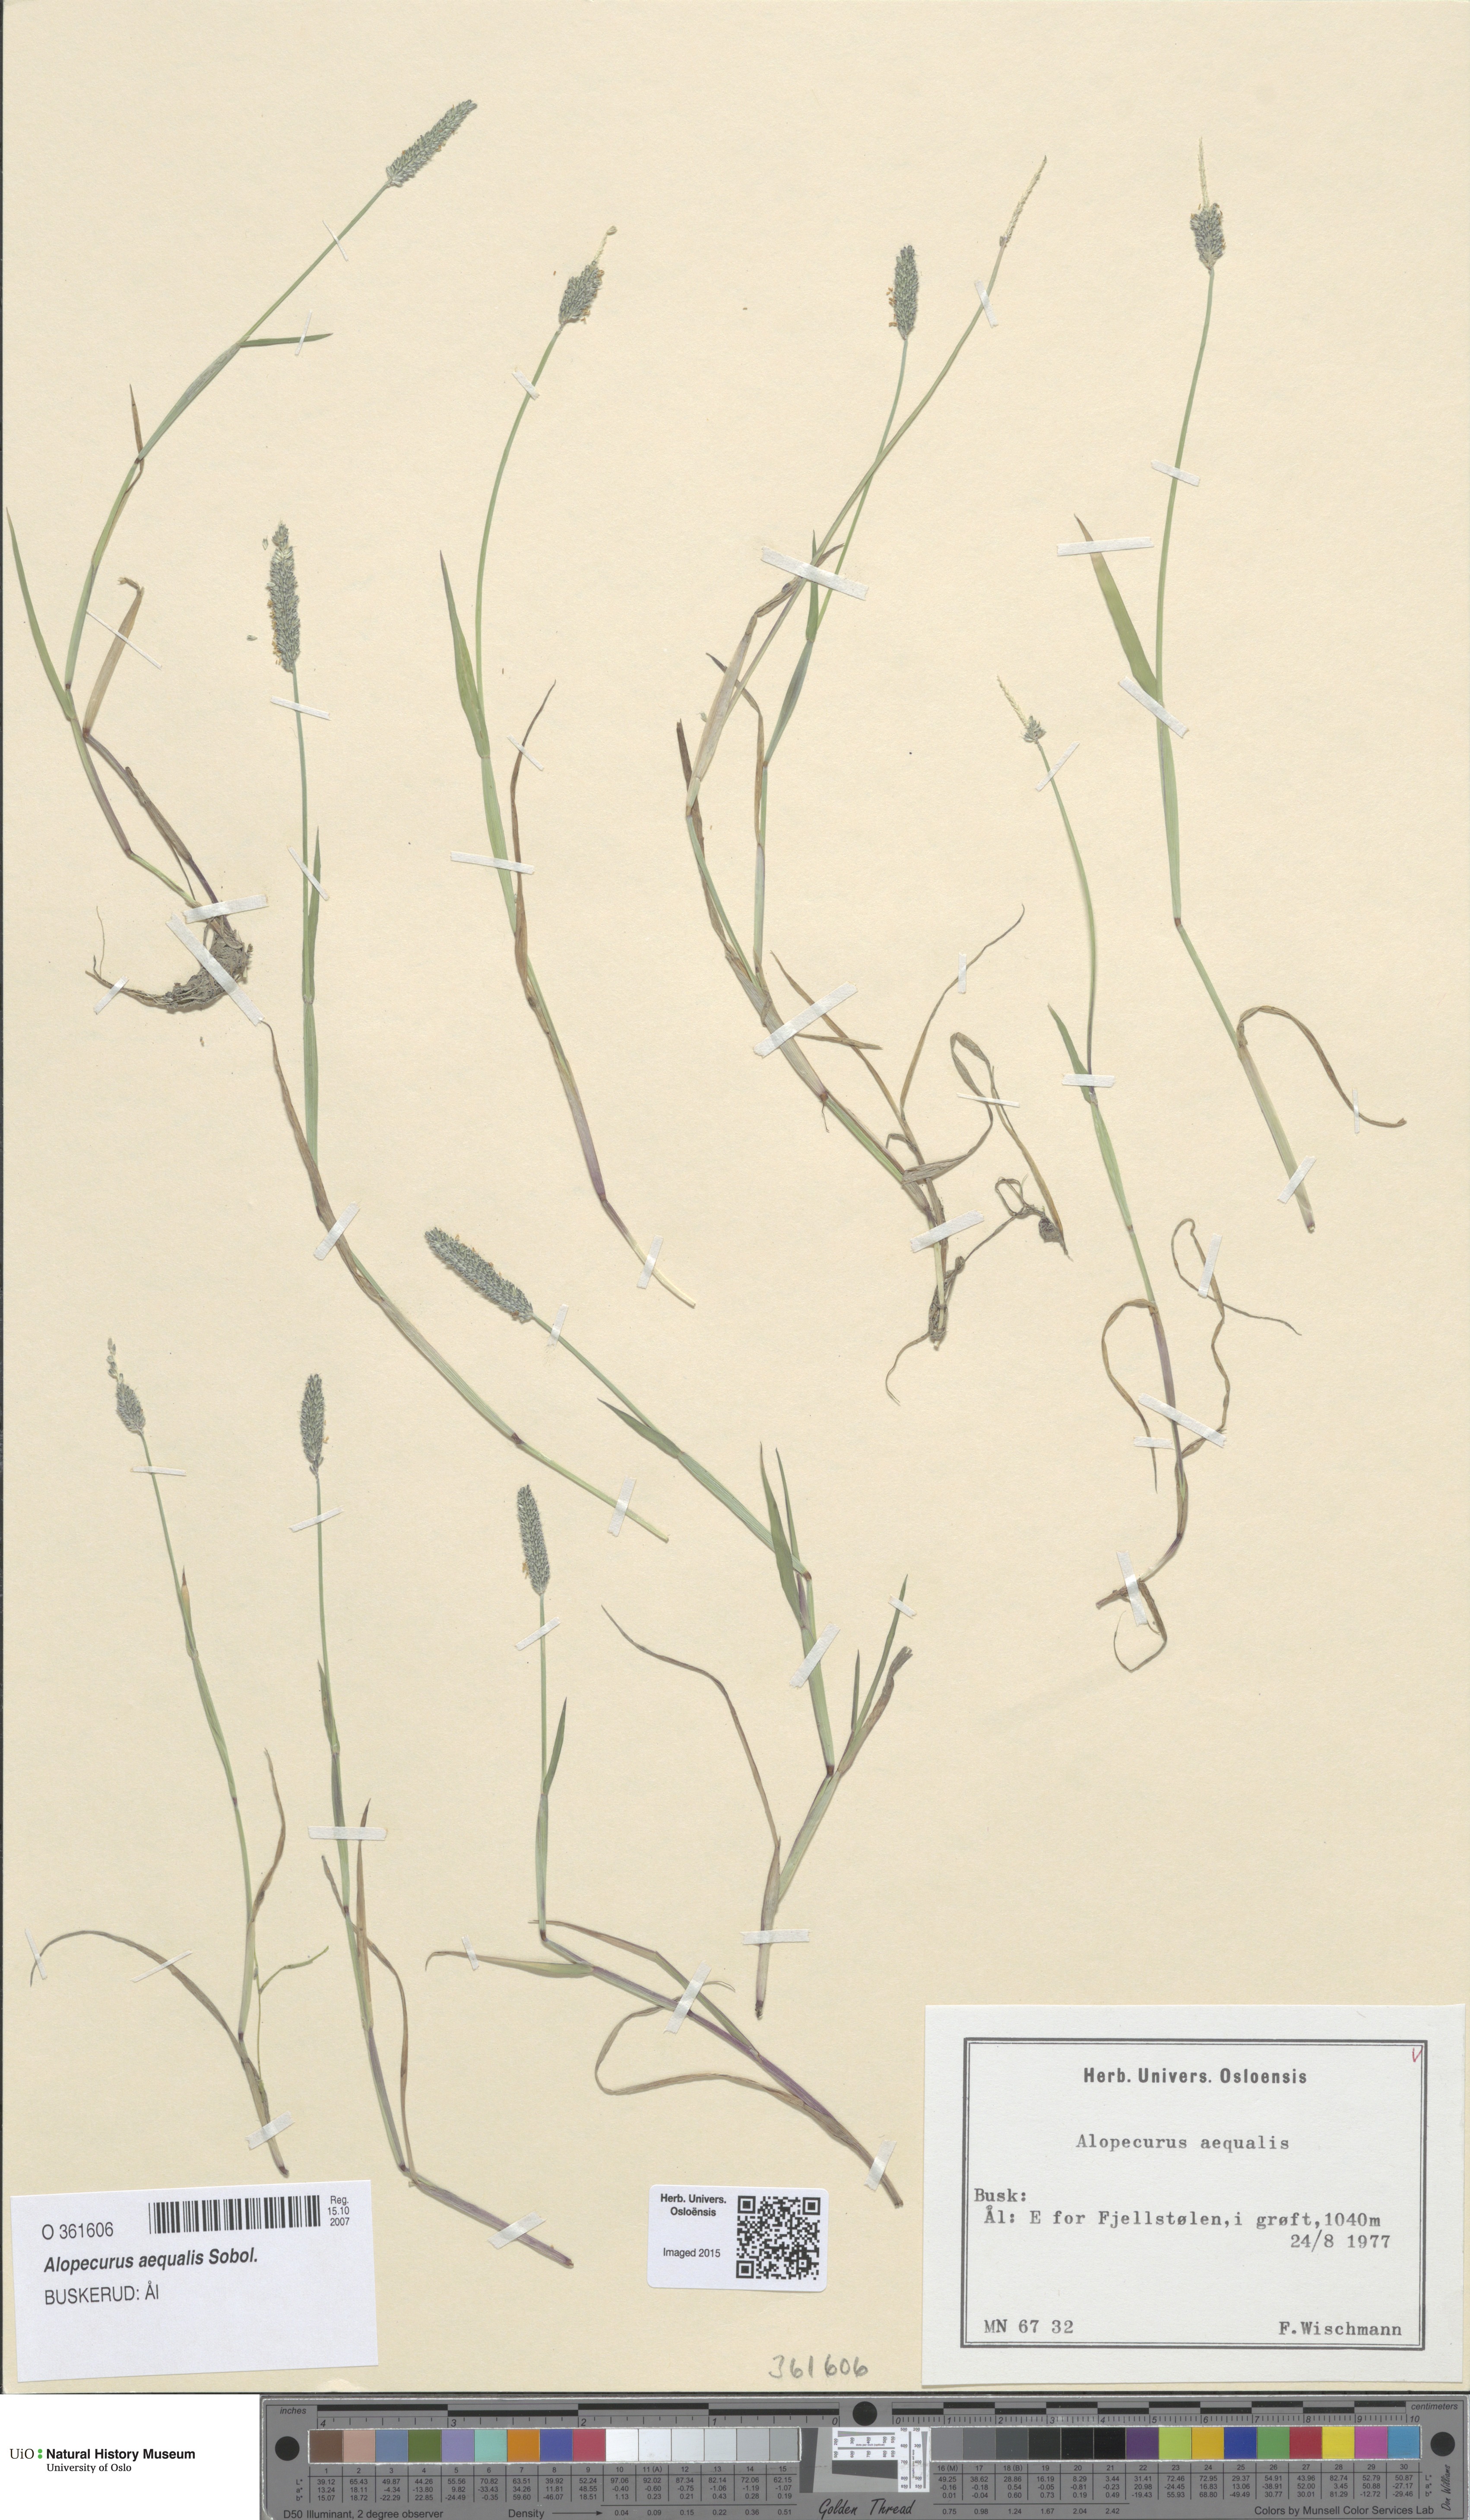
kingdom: Plantae
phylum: Tracheophyta
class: Liliopsida
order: Poales
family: Poaceae
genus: Alopecurus
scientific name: Alopecurus aequalis
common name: Orange foxtail
